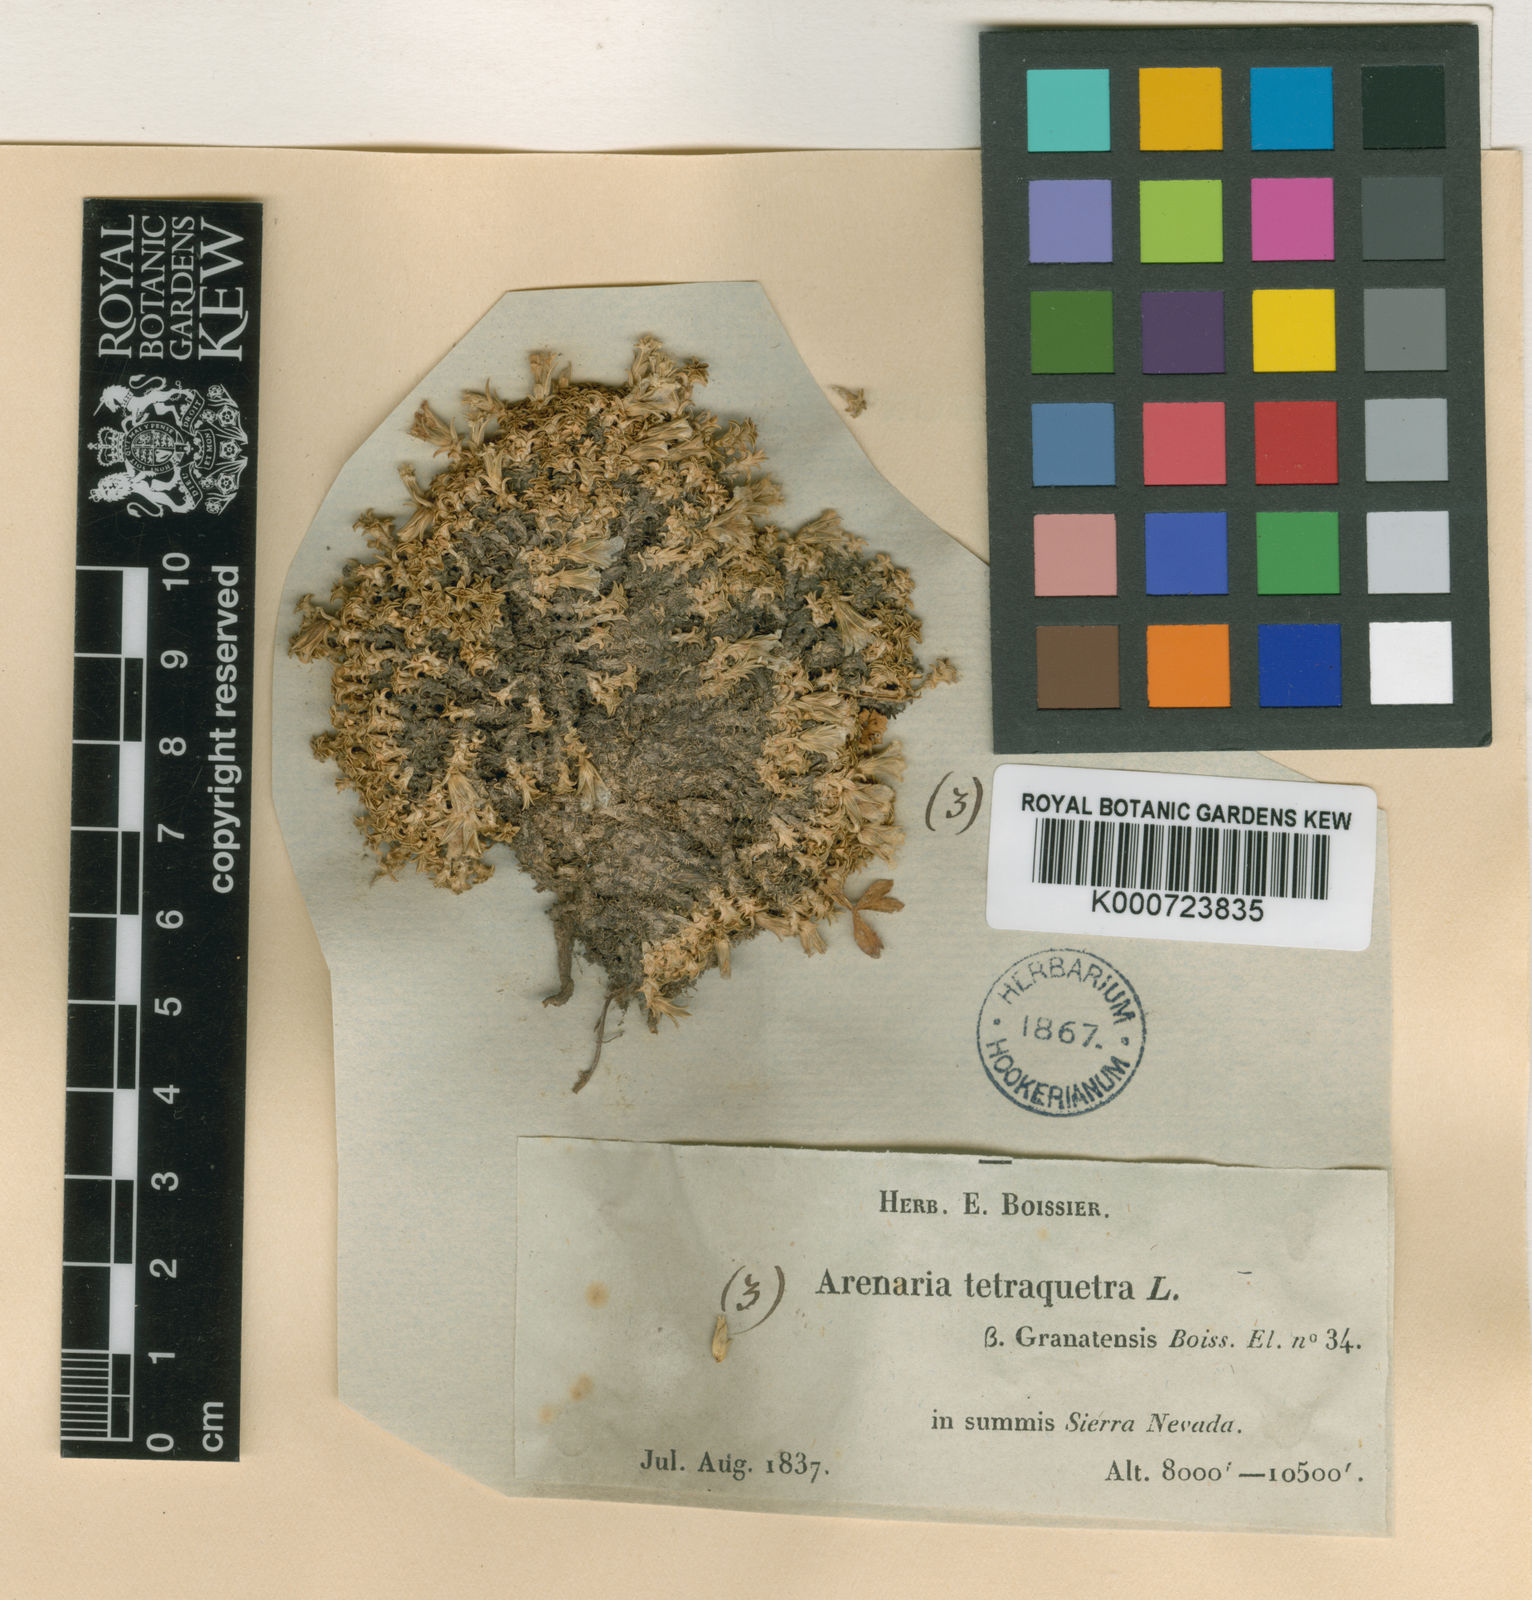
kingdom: Plantae
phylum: Tracheophyta
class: Magnoliopsida
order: Caryophyllales
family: Caryophyllaceae
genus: Arenaria
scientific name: Arenaria tetraquetra
